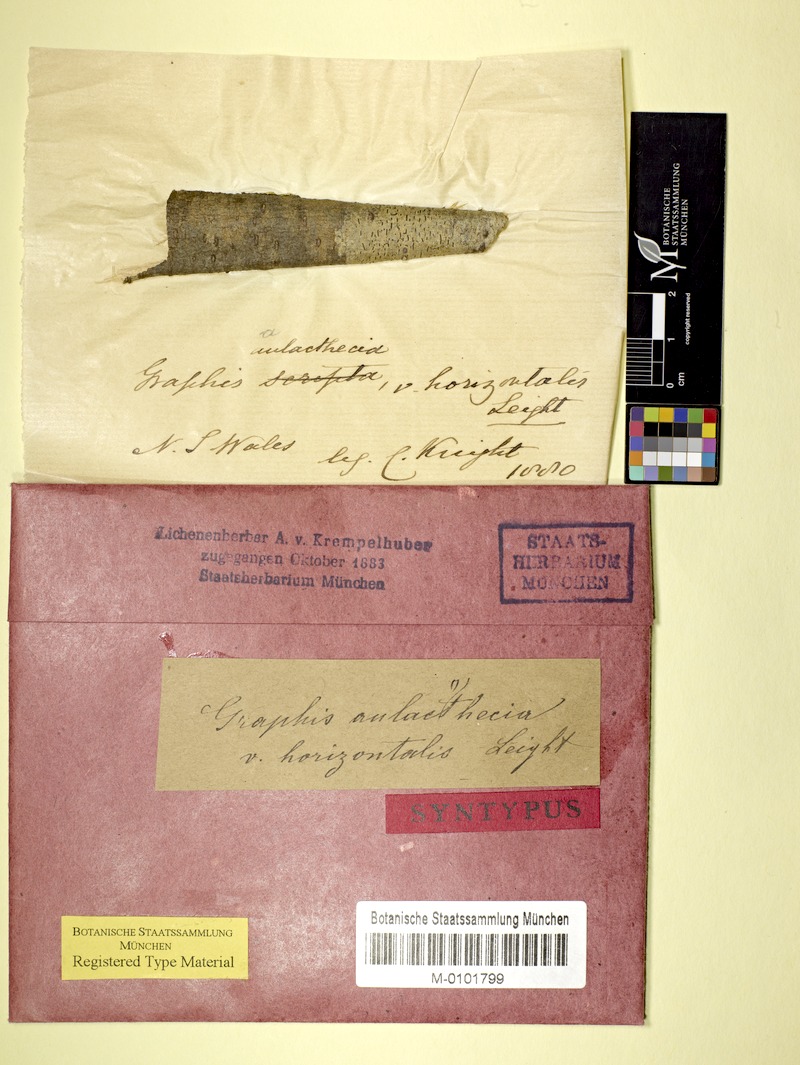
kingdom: Fungi
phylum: Ascomycota
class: Lecanoromycetes
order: Ostropales
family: Graphidaceae
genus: Halegrapha
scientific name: Halegrapha mucronata
